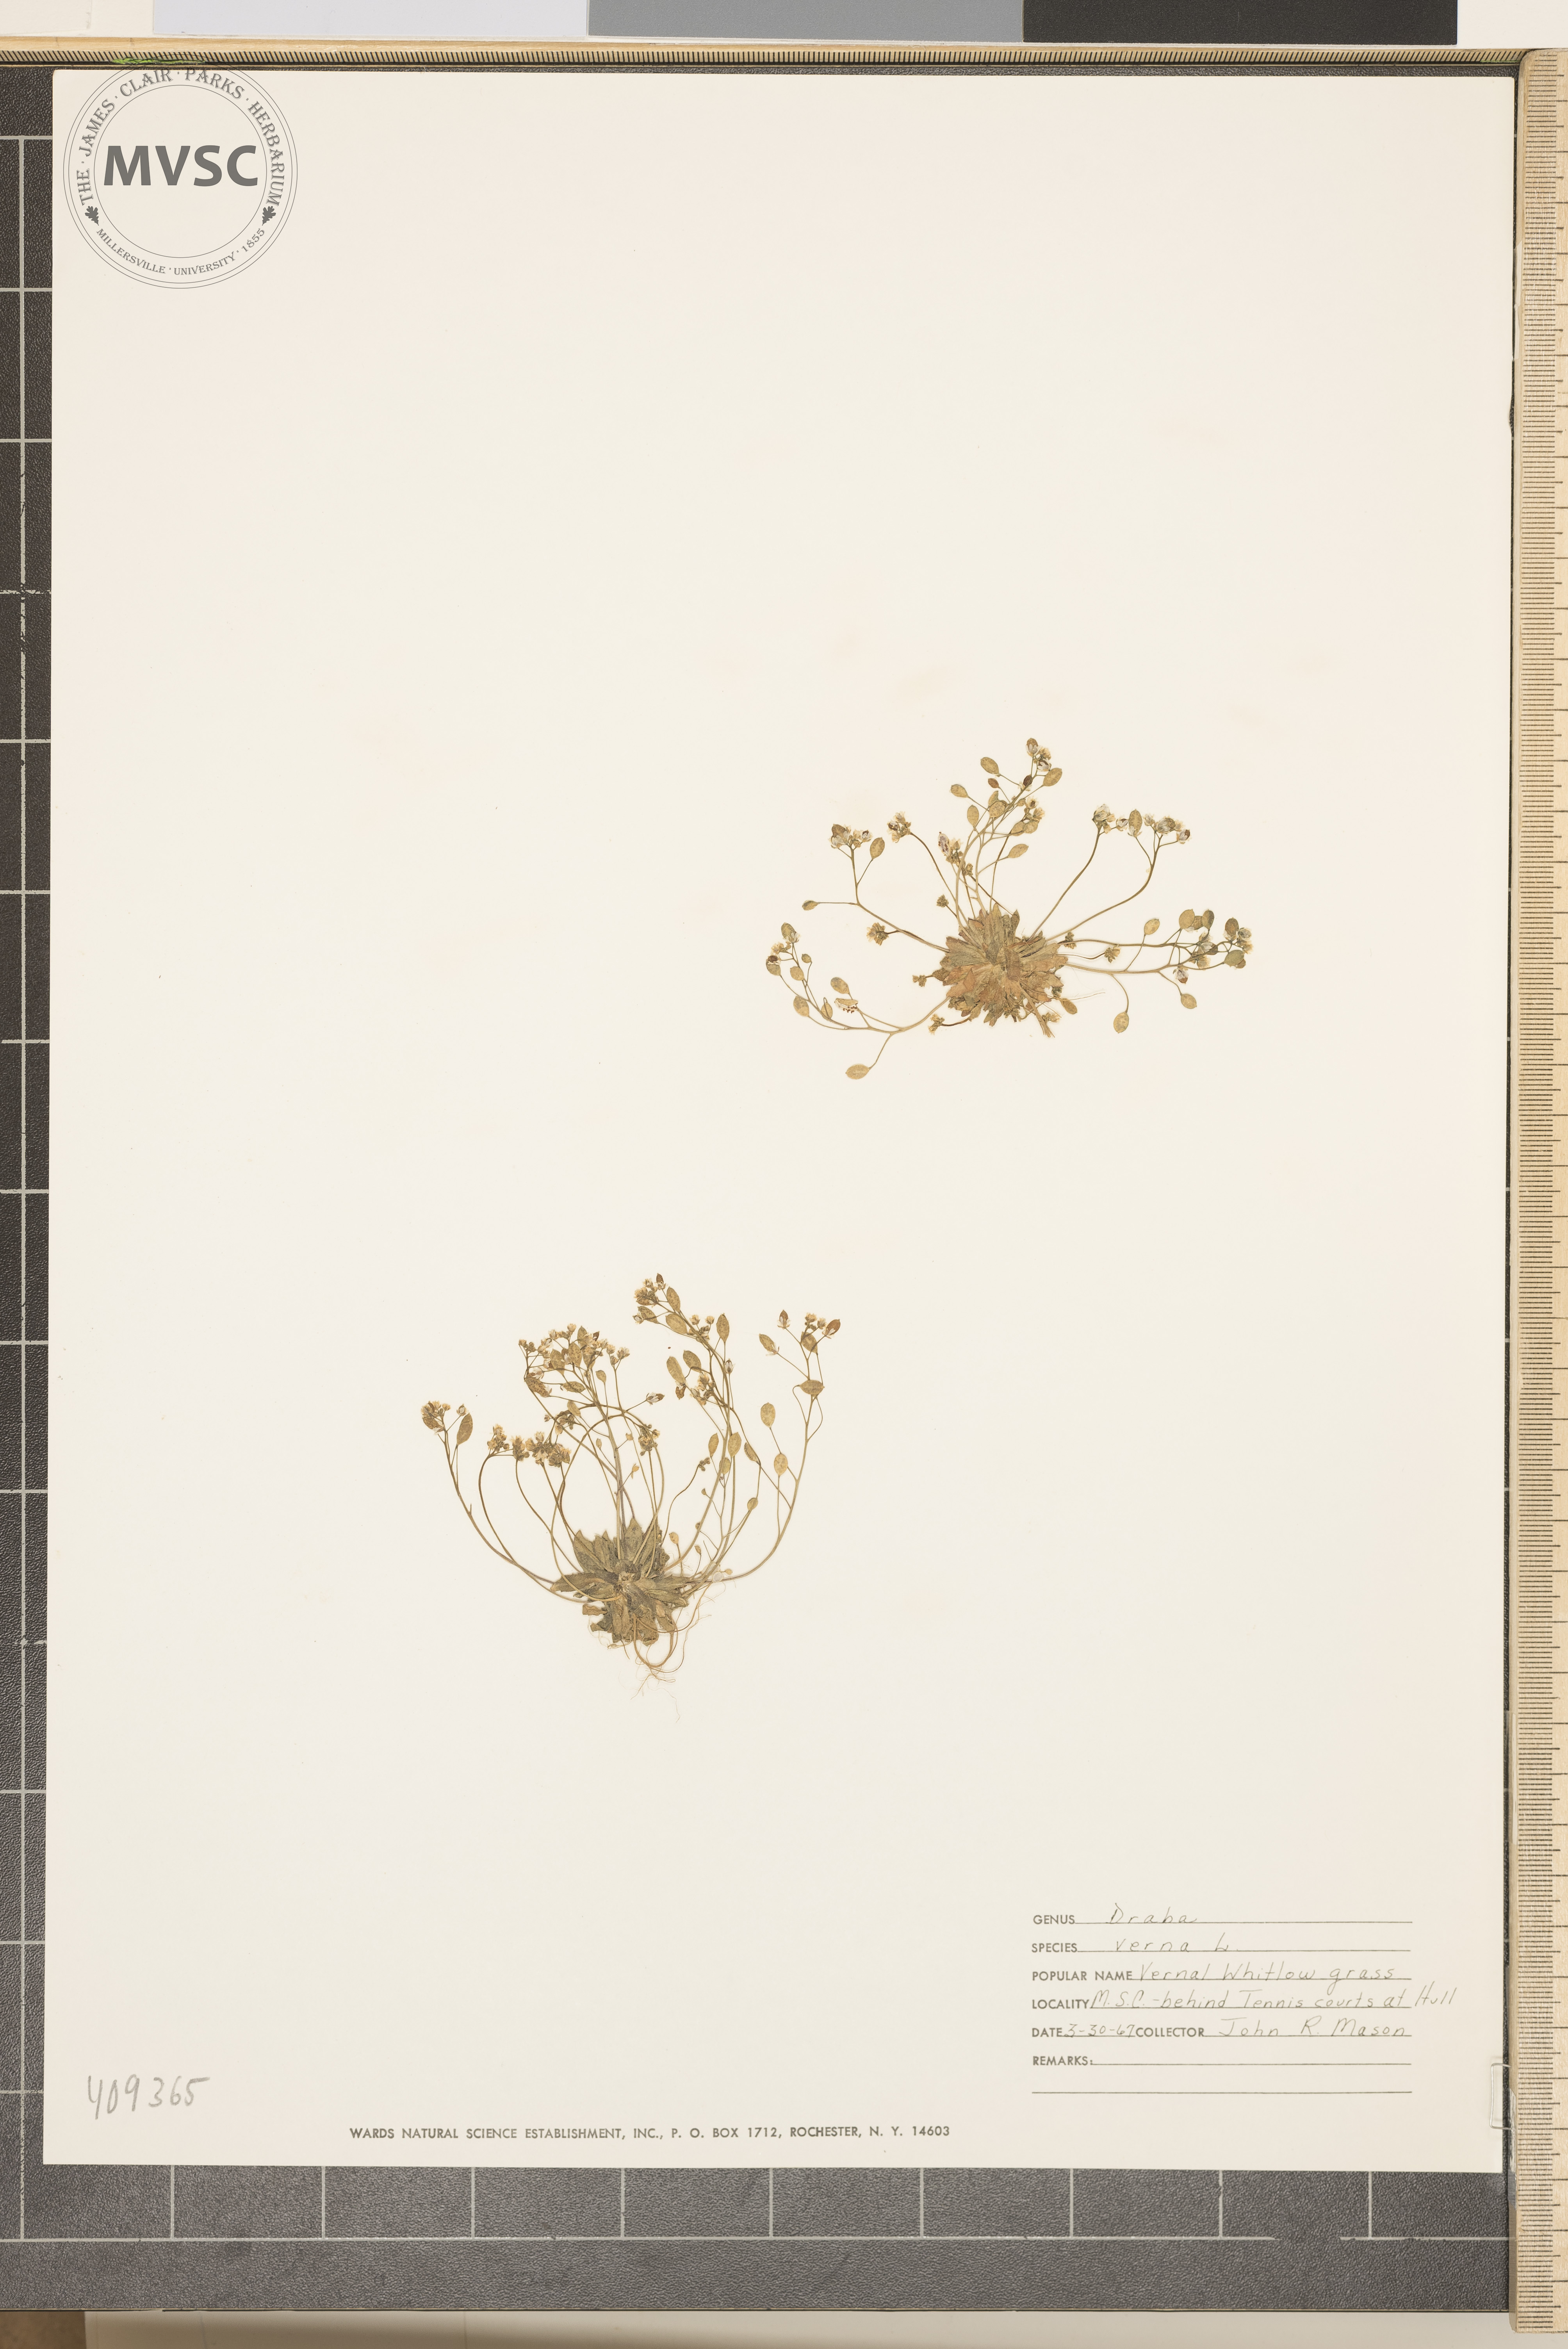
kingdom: Plantae
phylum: Tracheophyta
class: Magnoliopsida
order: Brassicales
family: Brassicaceae
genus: Draba
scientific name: Draba verna
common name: Spring draba
